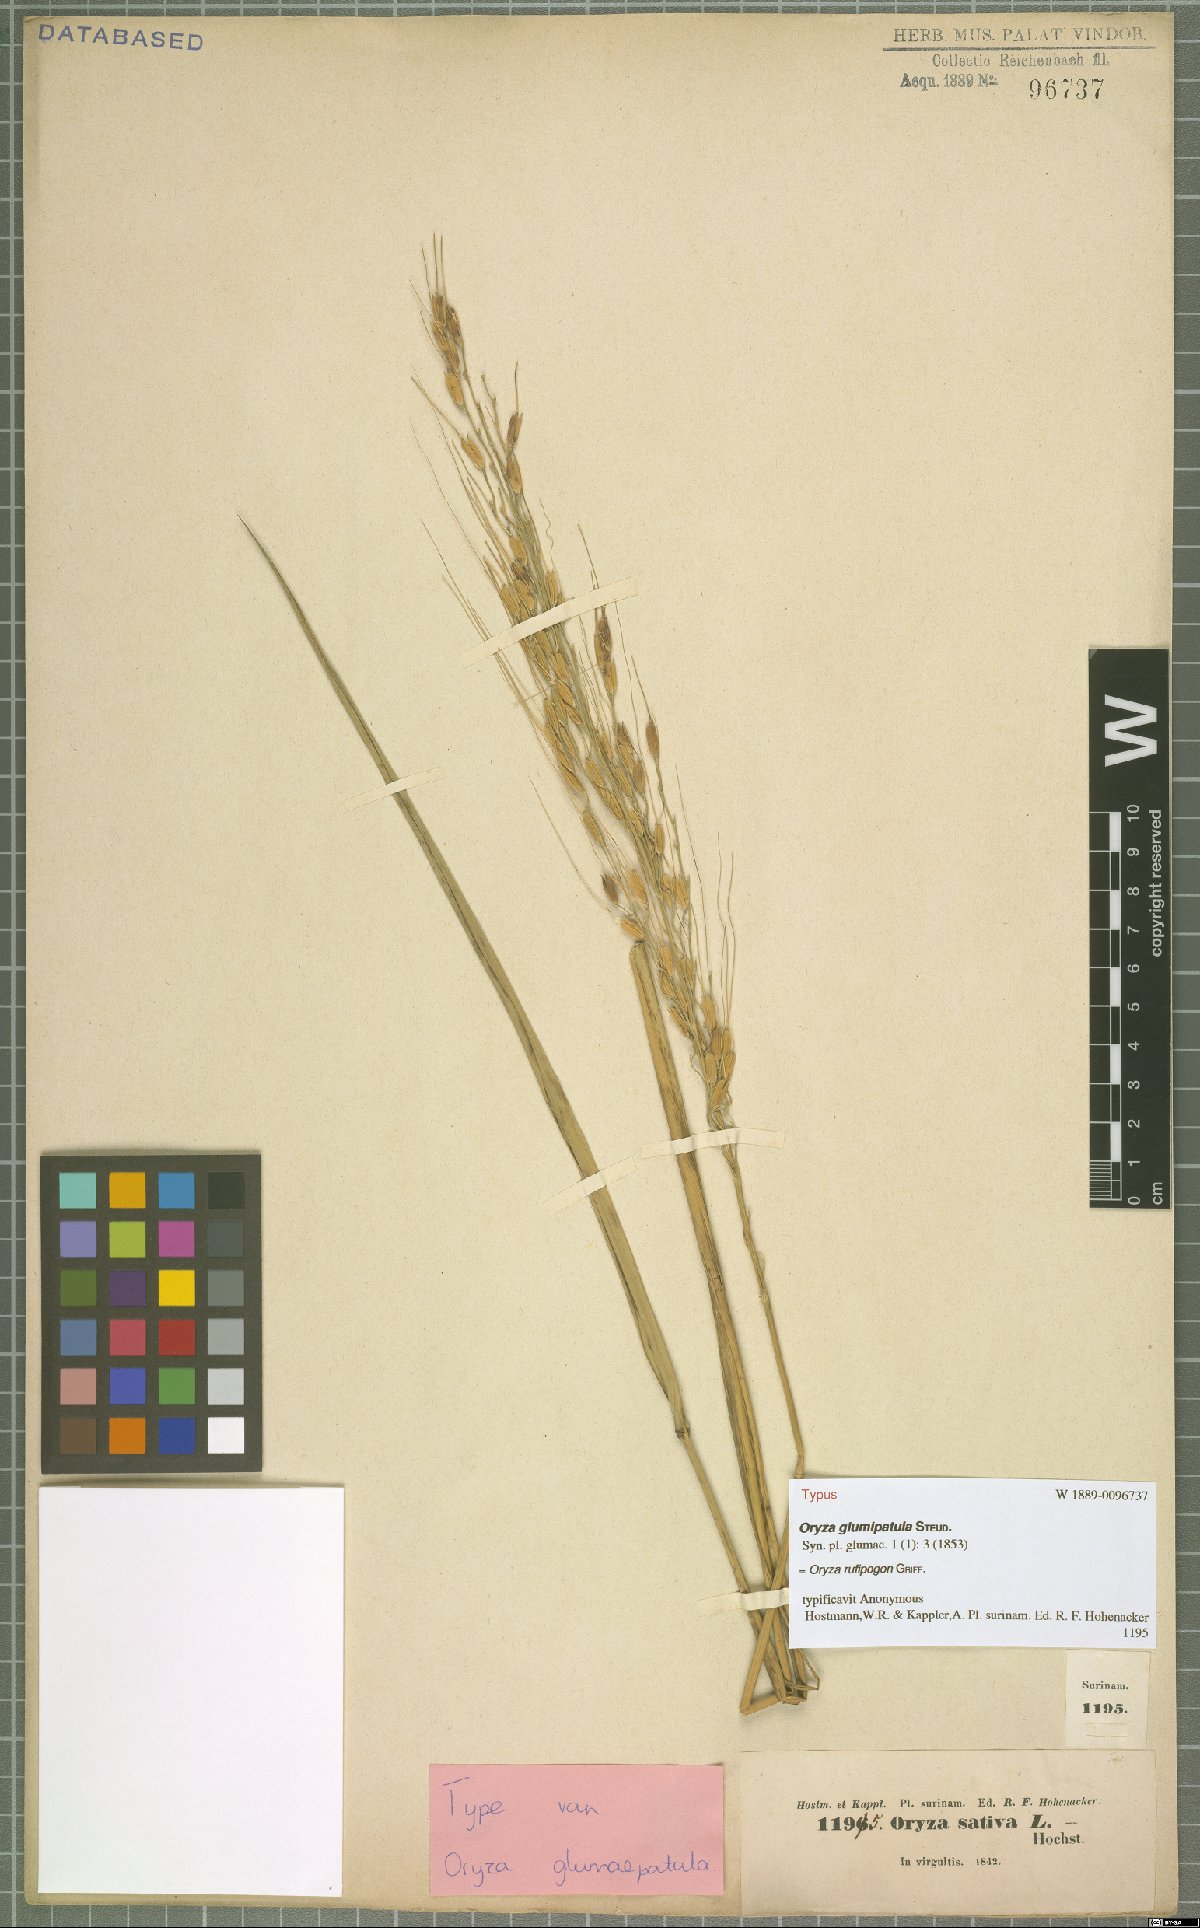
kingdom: Plantae
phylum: Tracheophyta
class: Liliopsida
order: Poales
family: Poaceae
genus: Oryza
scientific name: Oryza rufipogon
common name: Red rice
